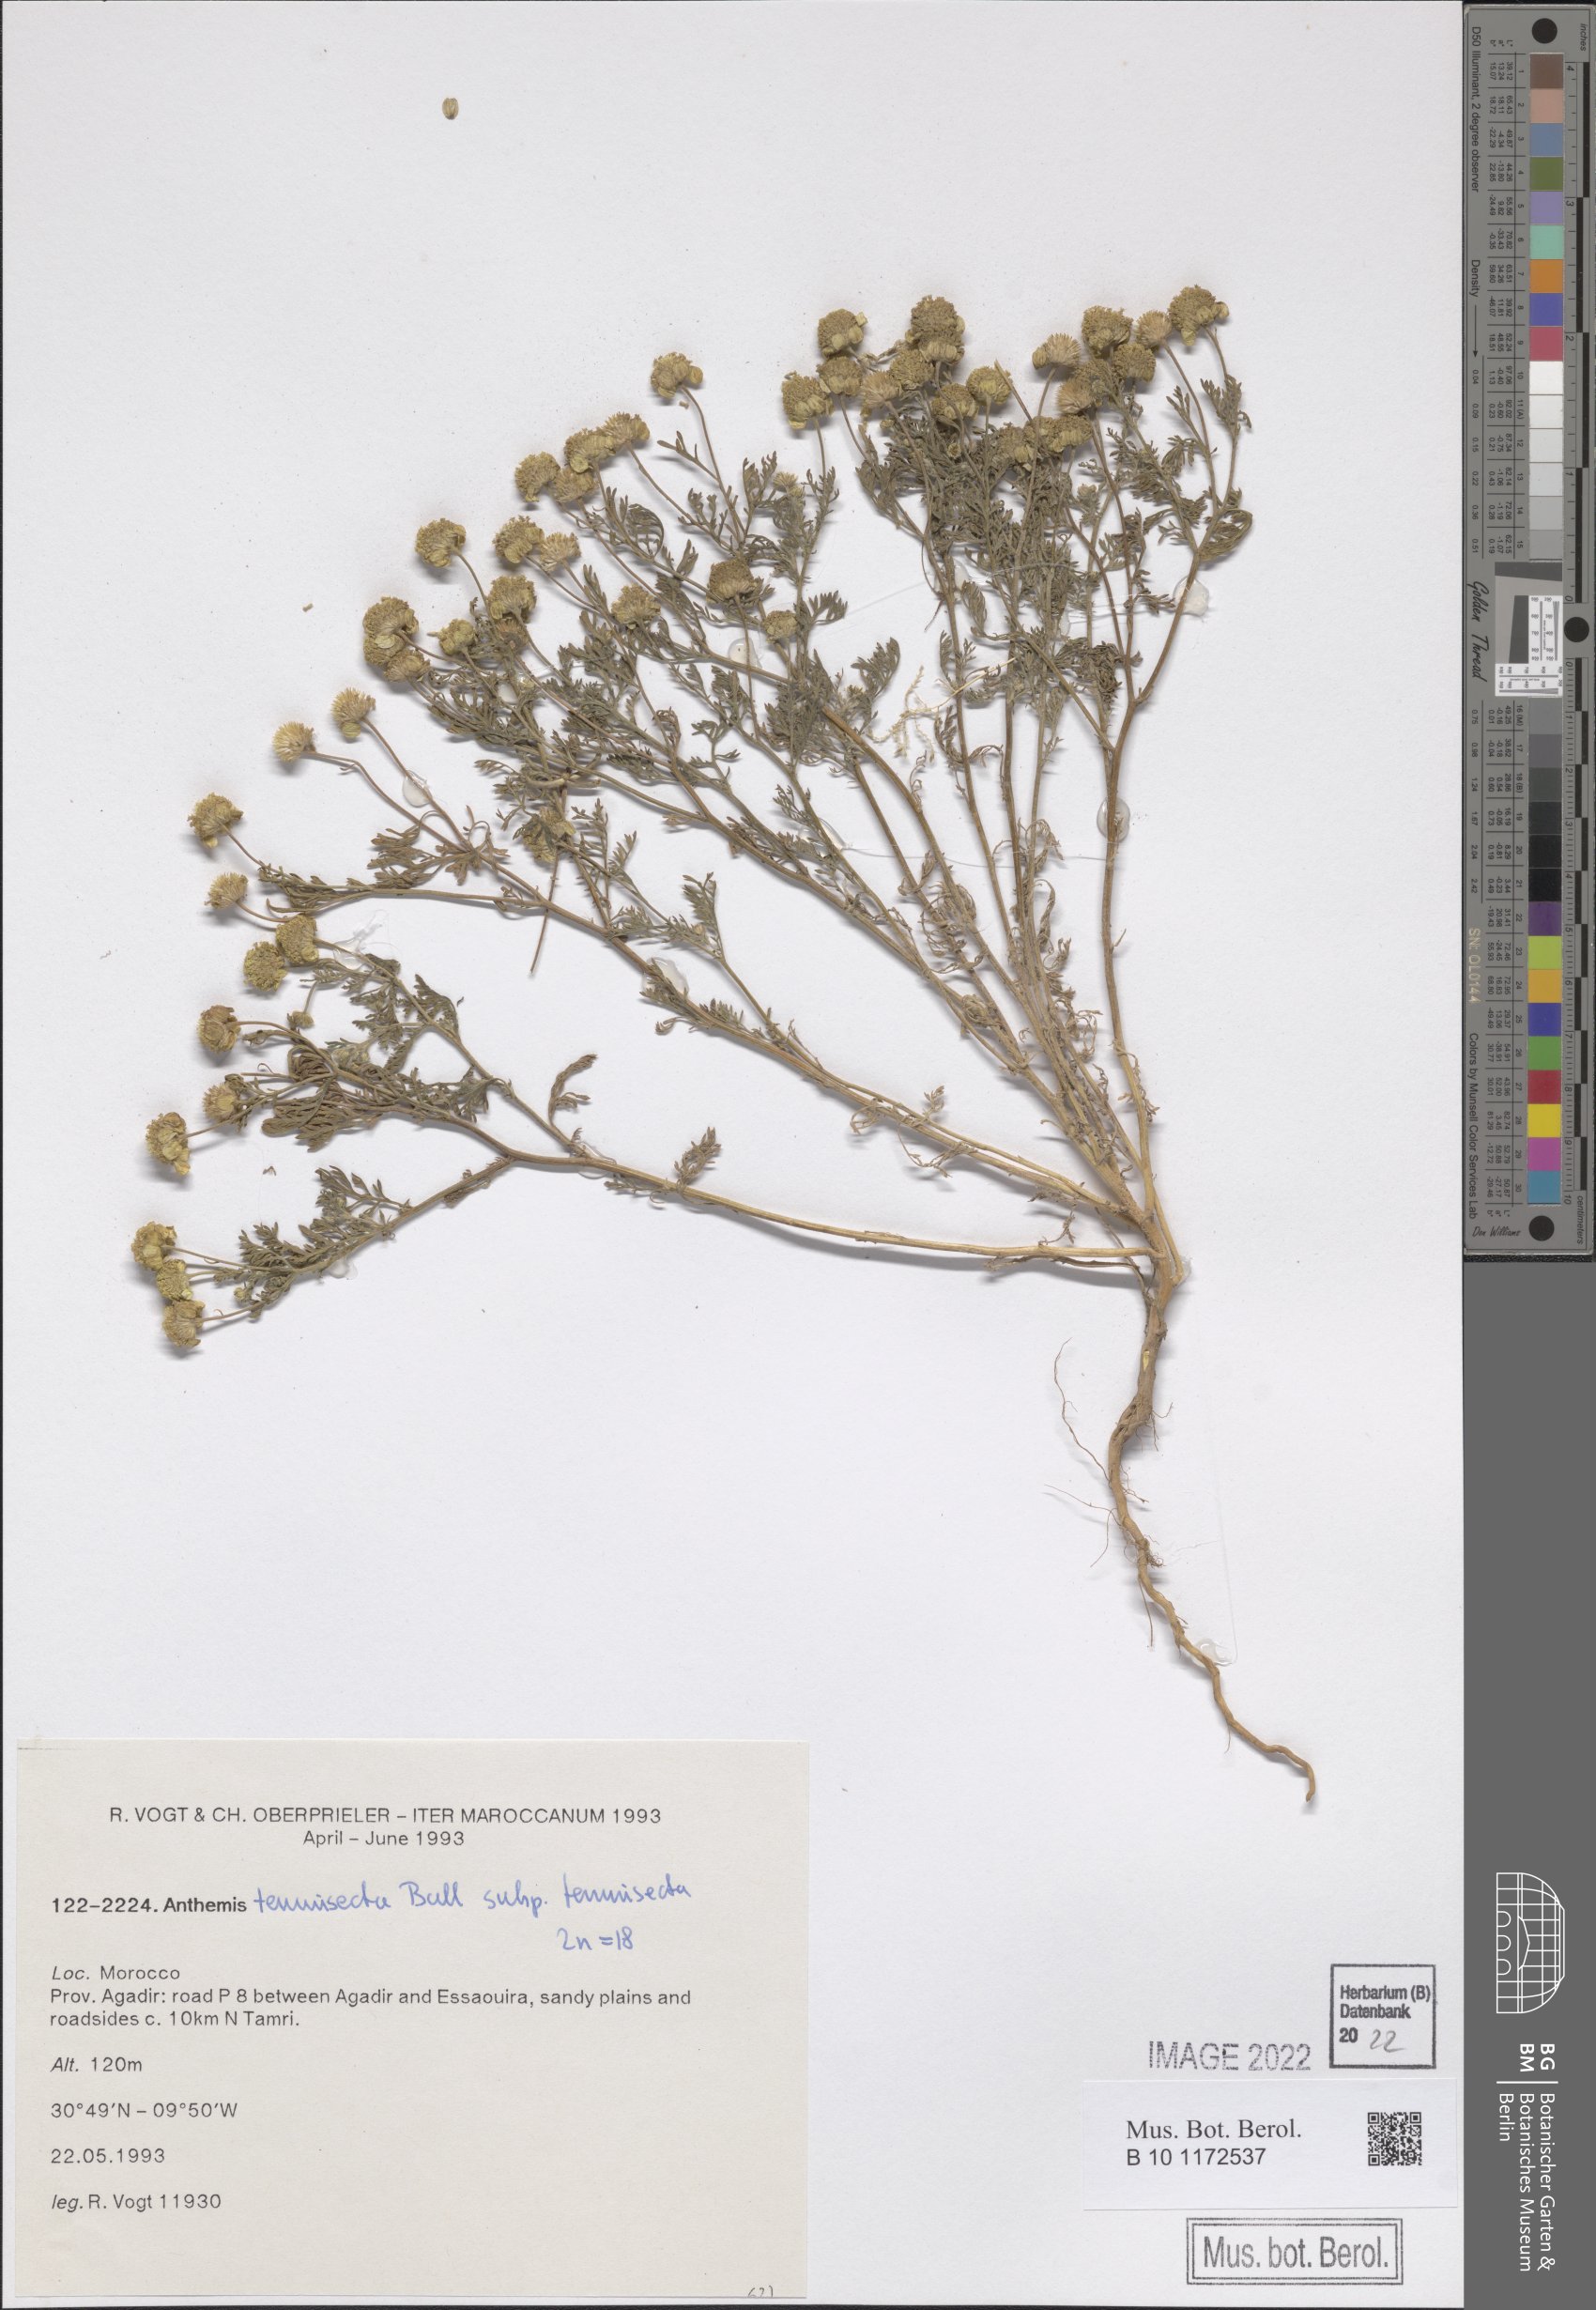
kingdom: Plantae
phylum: Tracheophyta
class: Magnoliopsida
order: Asterales
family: Asteraceae
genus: Anthemis
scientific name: Anthemis tenuisecta
